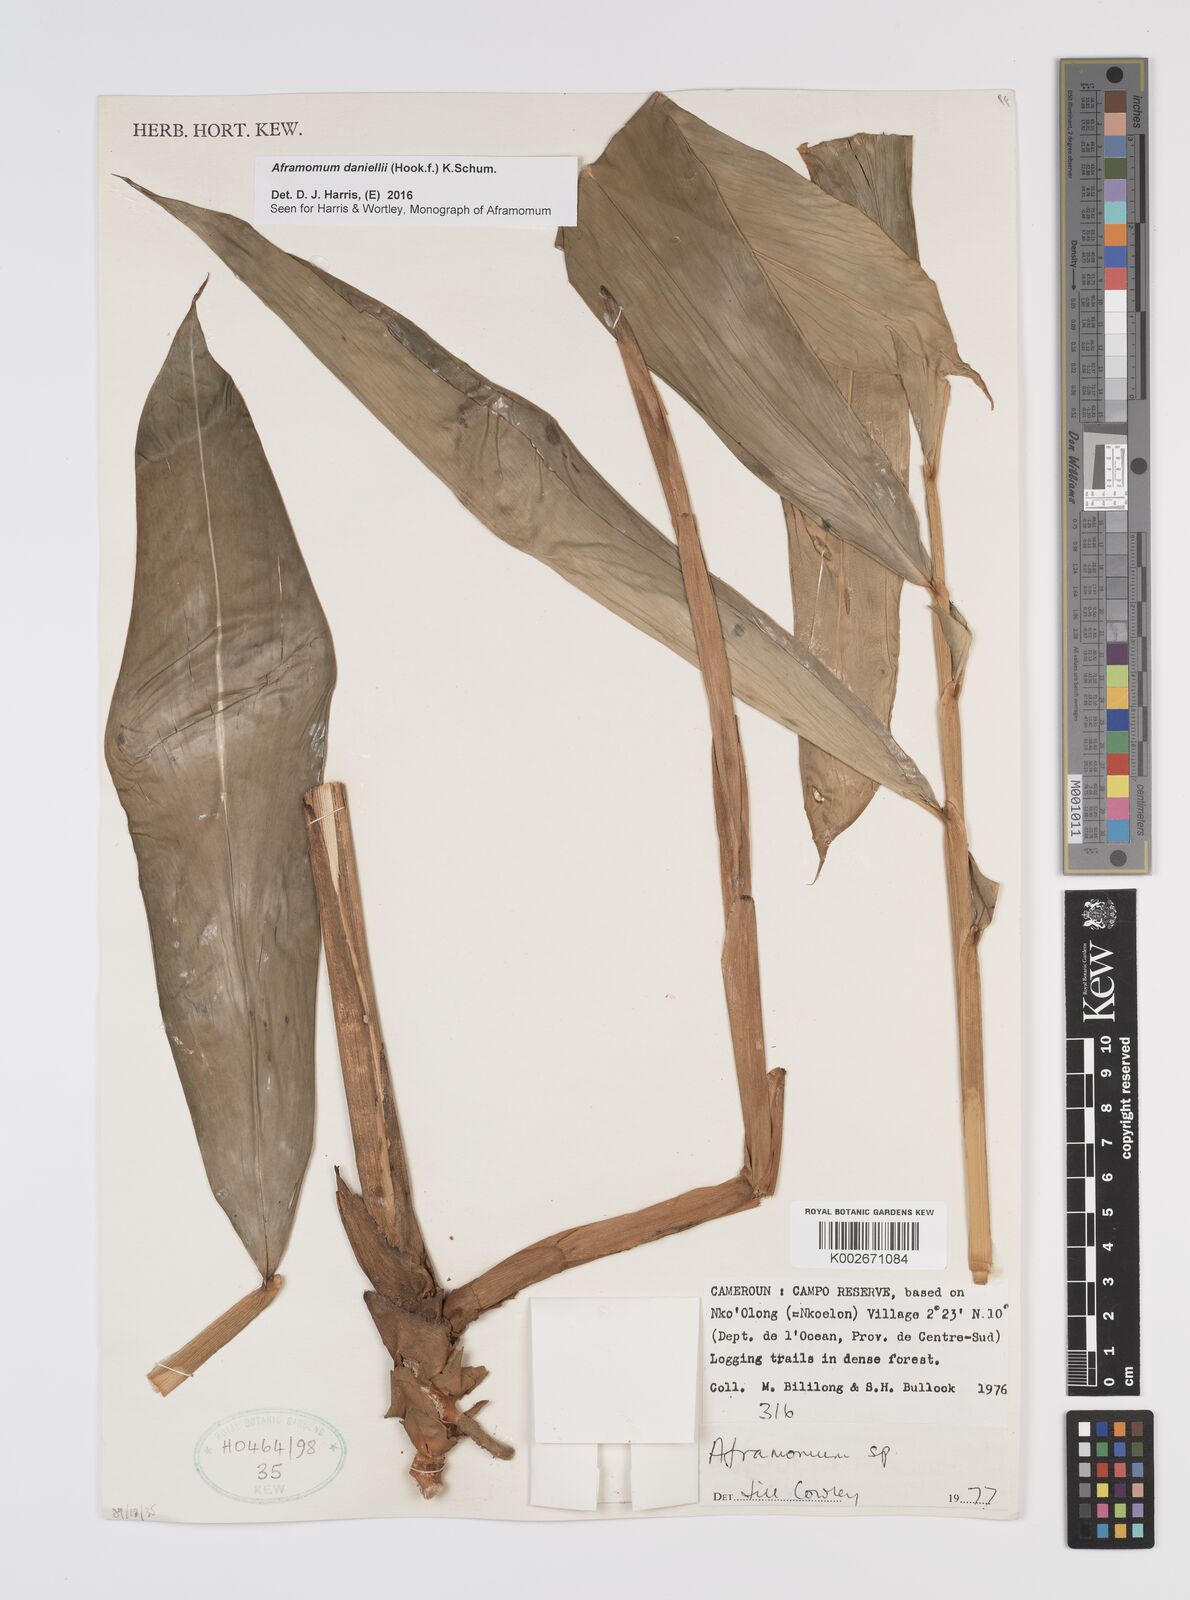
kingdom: Plantae
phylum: Tracheophyta
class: Liliopsida
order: Zingiberales
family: Zingiberaceae
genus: Aframomum
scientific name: Aframomum daniellii
